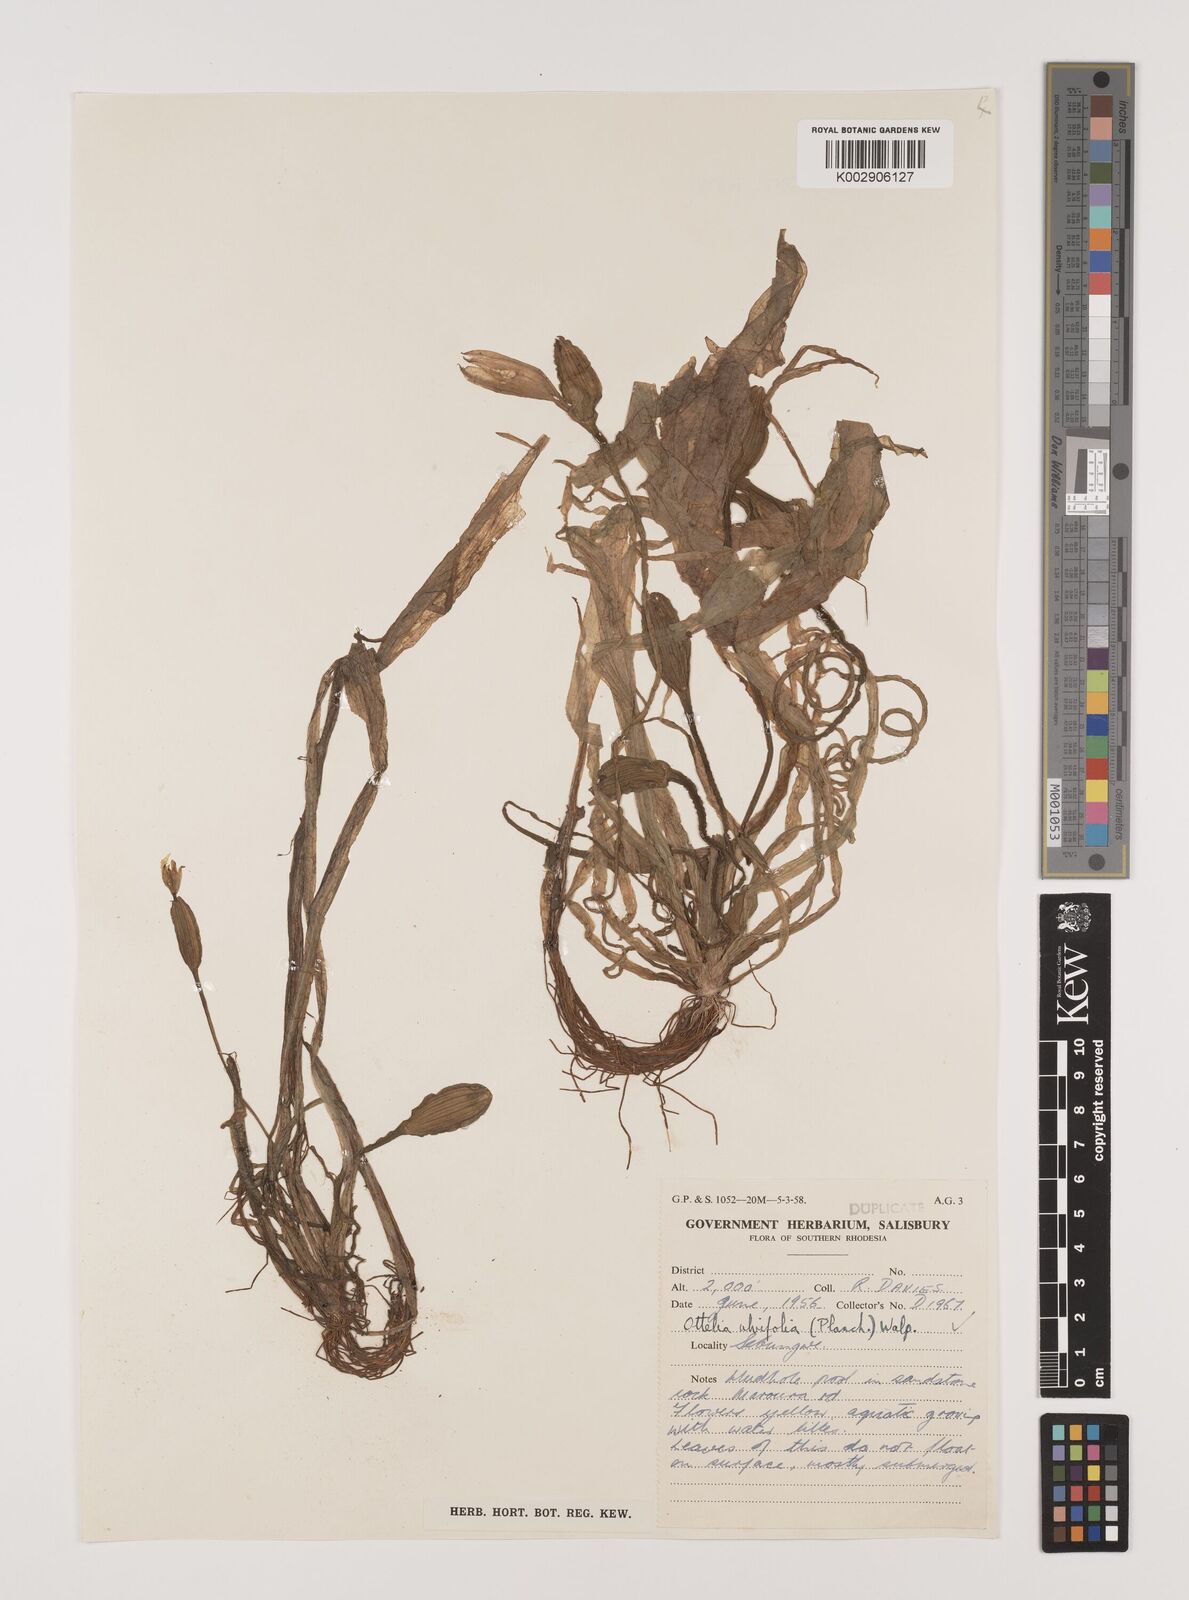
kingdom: Plantae
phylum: Tracheophyta
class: Liliopsida
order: Alismatales
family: Hydrocharitaceae
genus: Ottelia
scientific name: Ottelia ulvifolia
